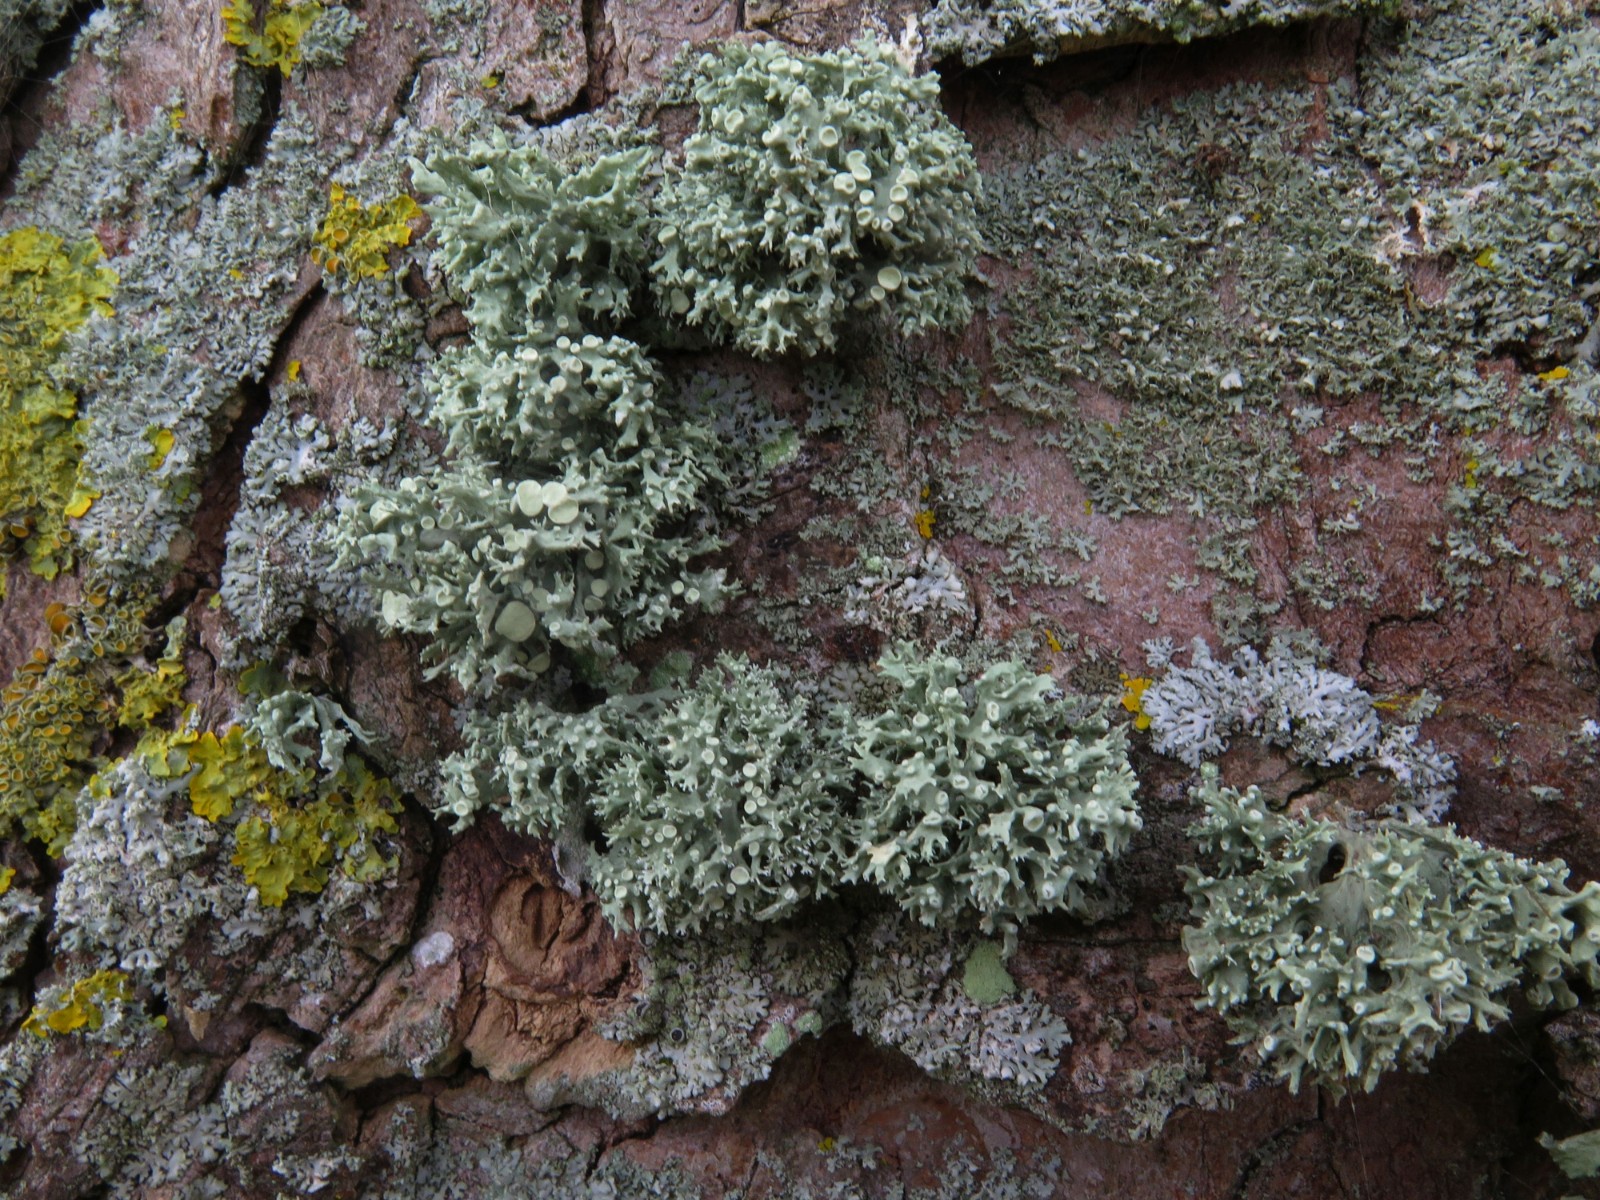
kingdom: Fungi
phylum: Ascomycota
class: Lecanoromycetes
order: Lecanorales
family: Ramalinaceae
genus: Ramalina
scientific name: Ramalina fastigiata
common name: tue-grenlav
